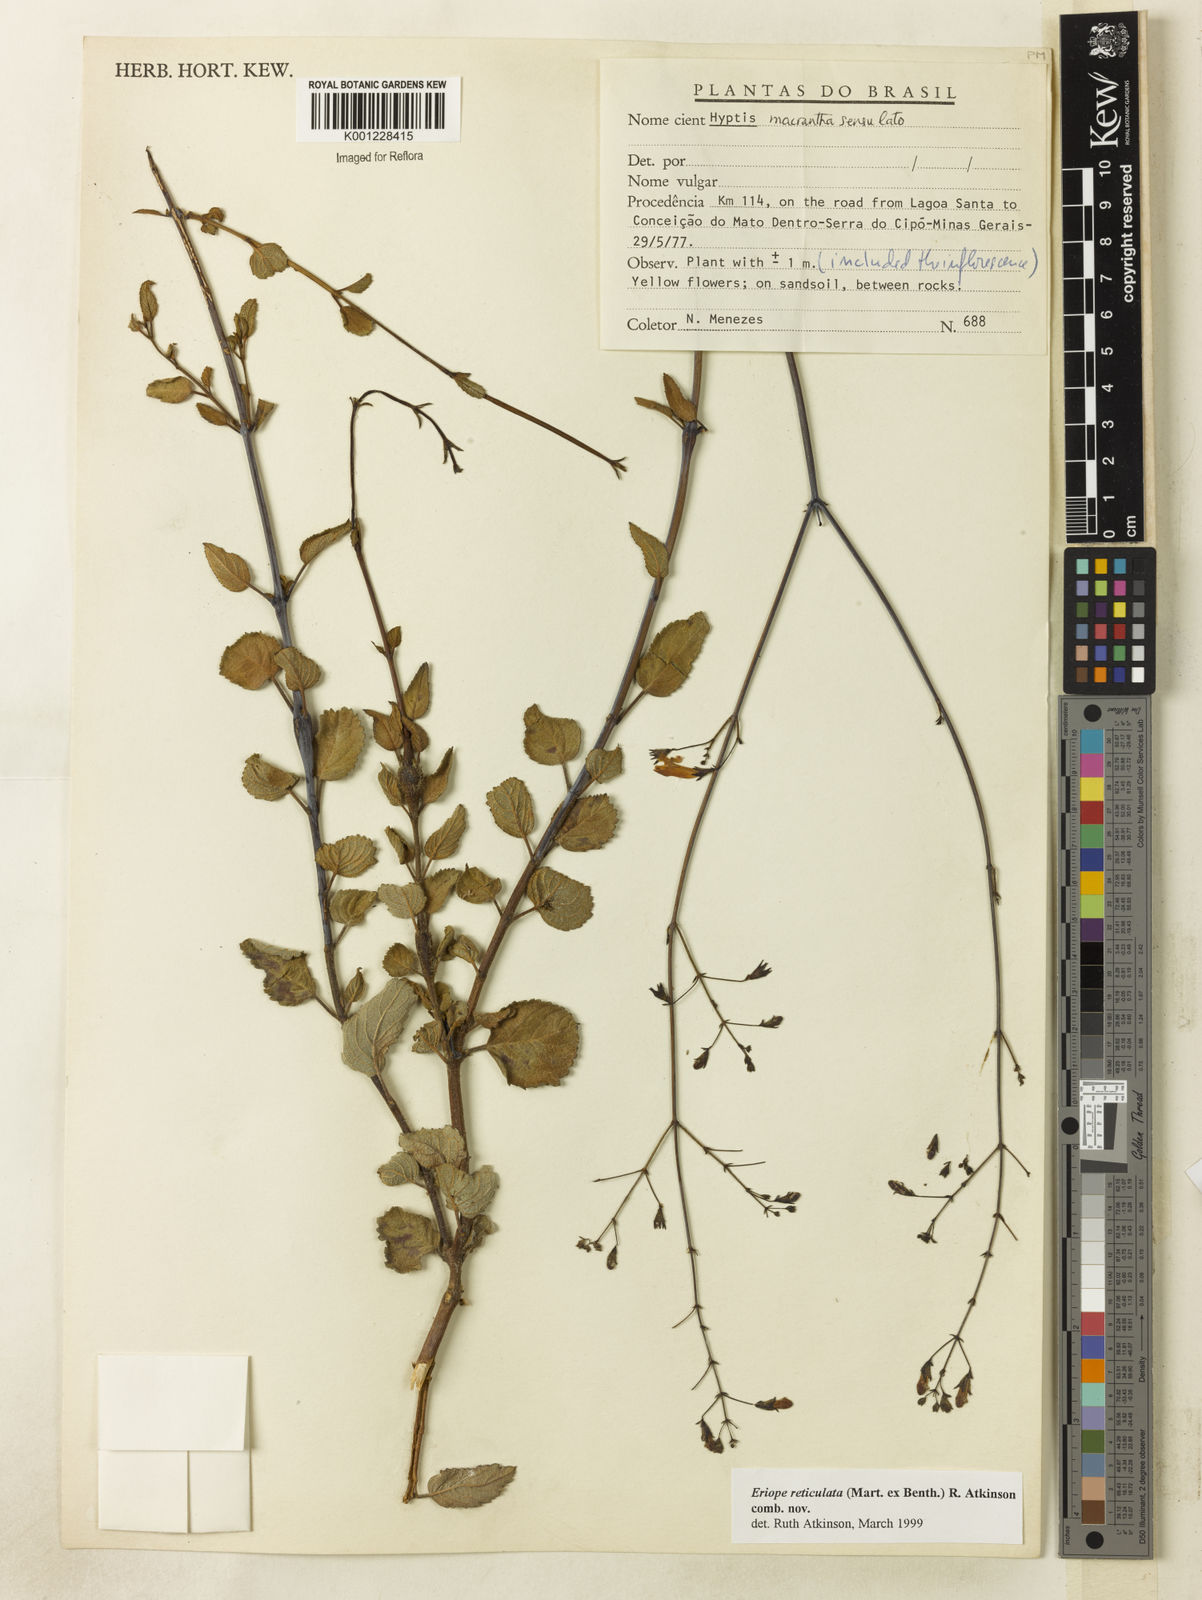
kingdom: Plantae
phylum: Tracheophyta
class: Magnoliopsida
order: Lamiales
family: Lamiaceae
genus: Hypenia
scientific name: Hypenia reticulata
